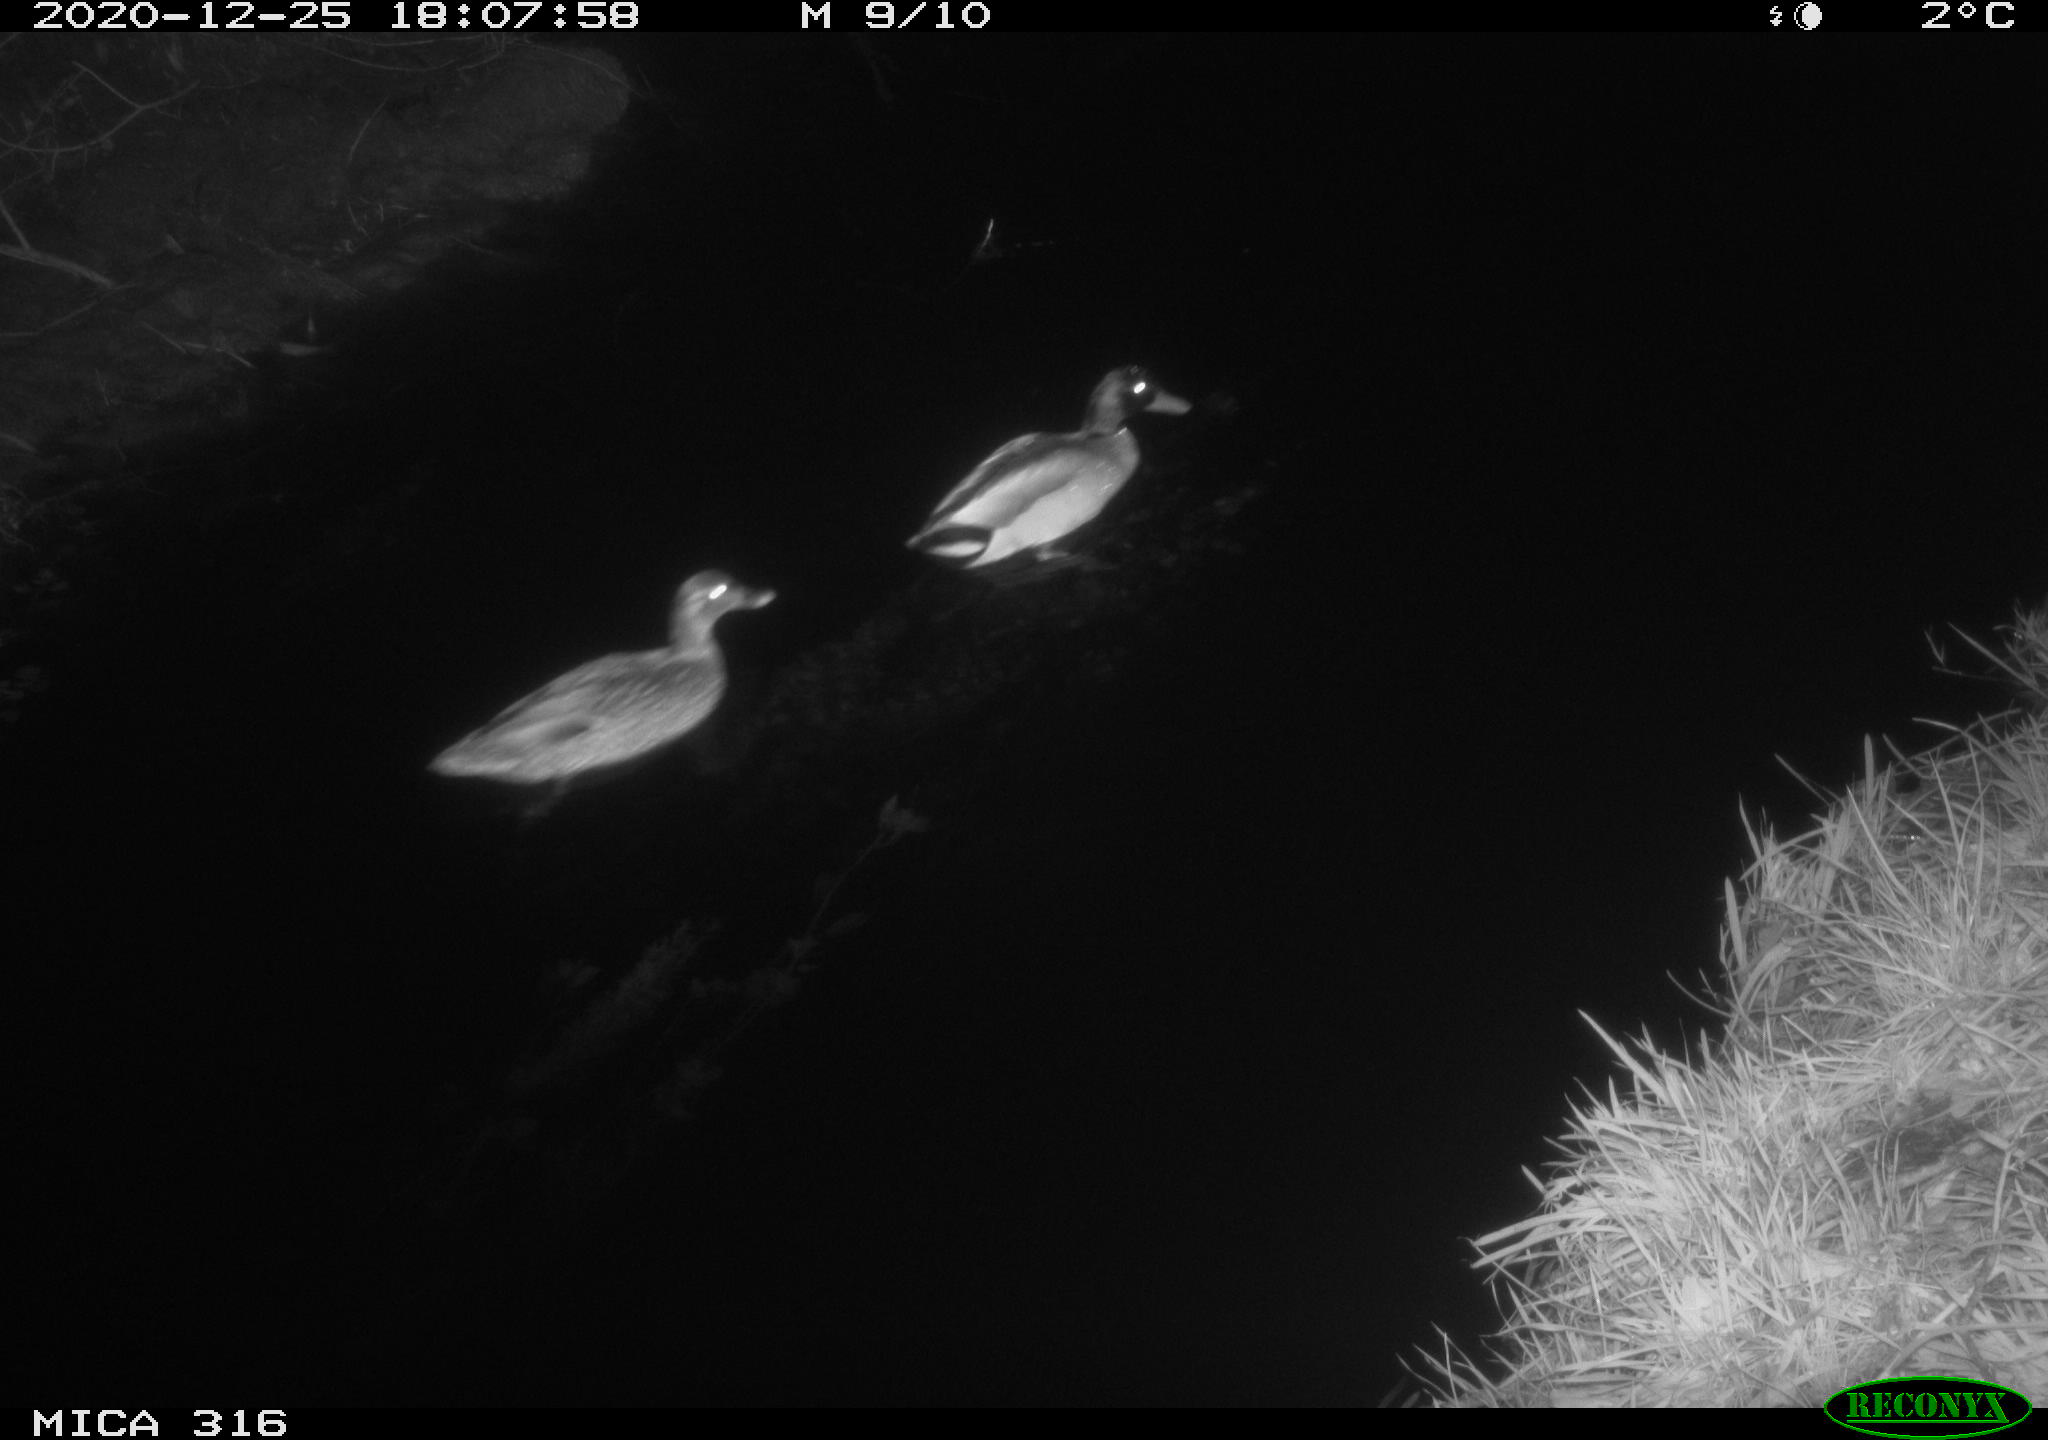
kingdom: Animalia
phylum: Chordata
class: Aves
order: Anseriformes
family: Anatidae
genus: Anas
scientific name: Anas platyrhynchos
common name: Mallard
